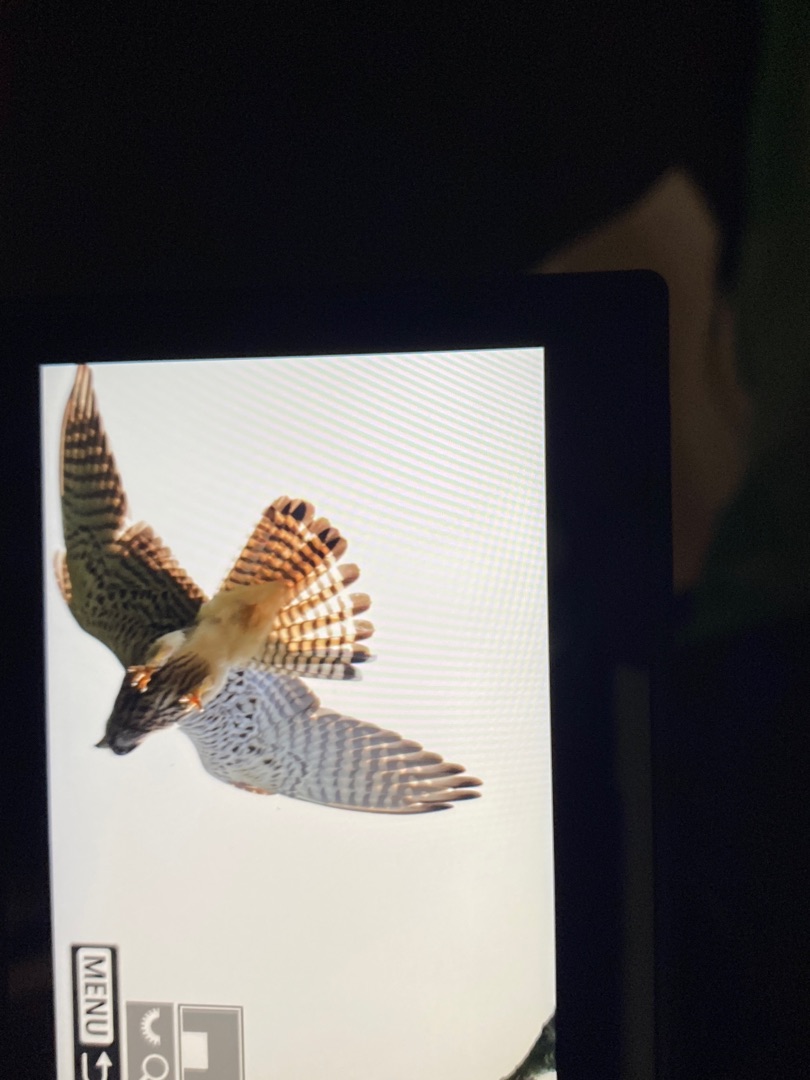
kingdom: Animalia
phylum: Chordata
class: Aves
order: Falconiformes
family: Falconidae
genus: Falco
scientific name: Falco tinnunculus
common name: Tårnfalk
